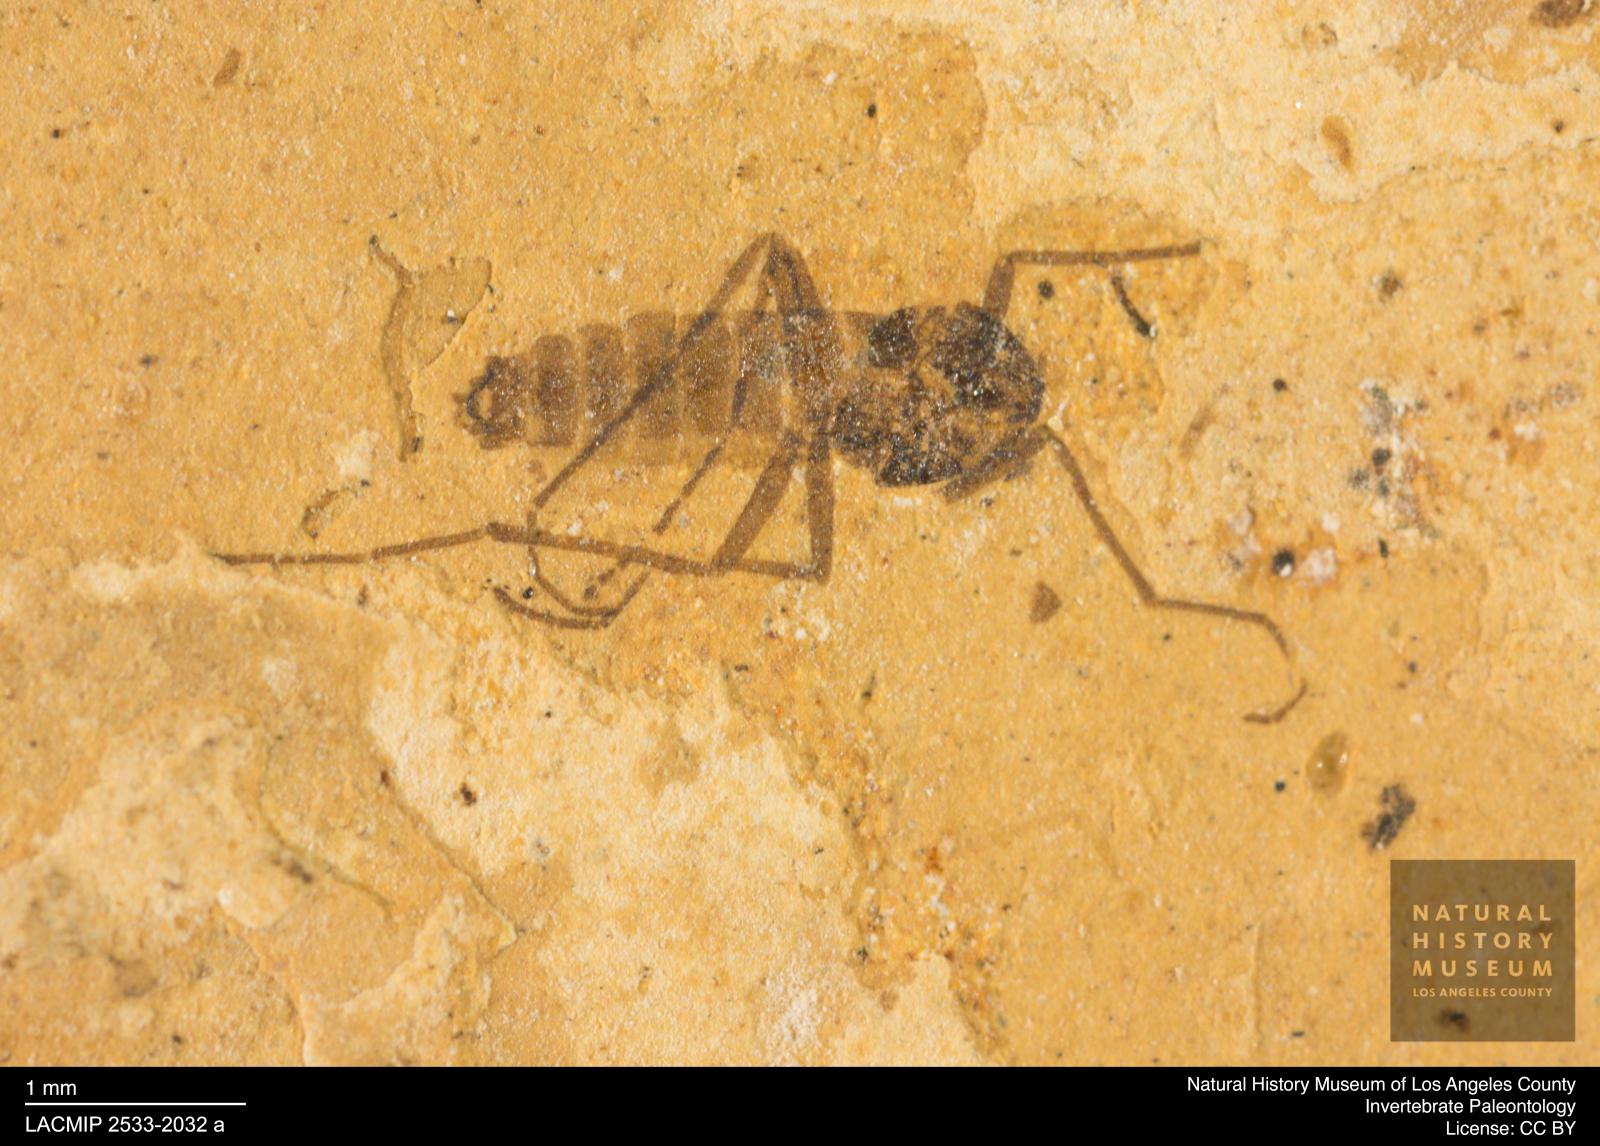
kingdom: Animalia
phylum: Arthropoda
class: Insecta
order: Diptera
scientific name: Diptera
